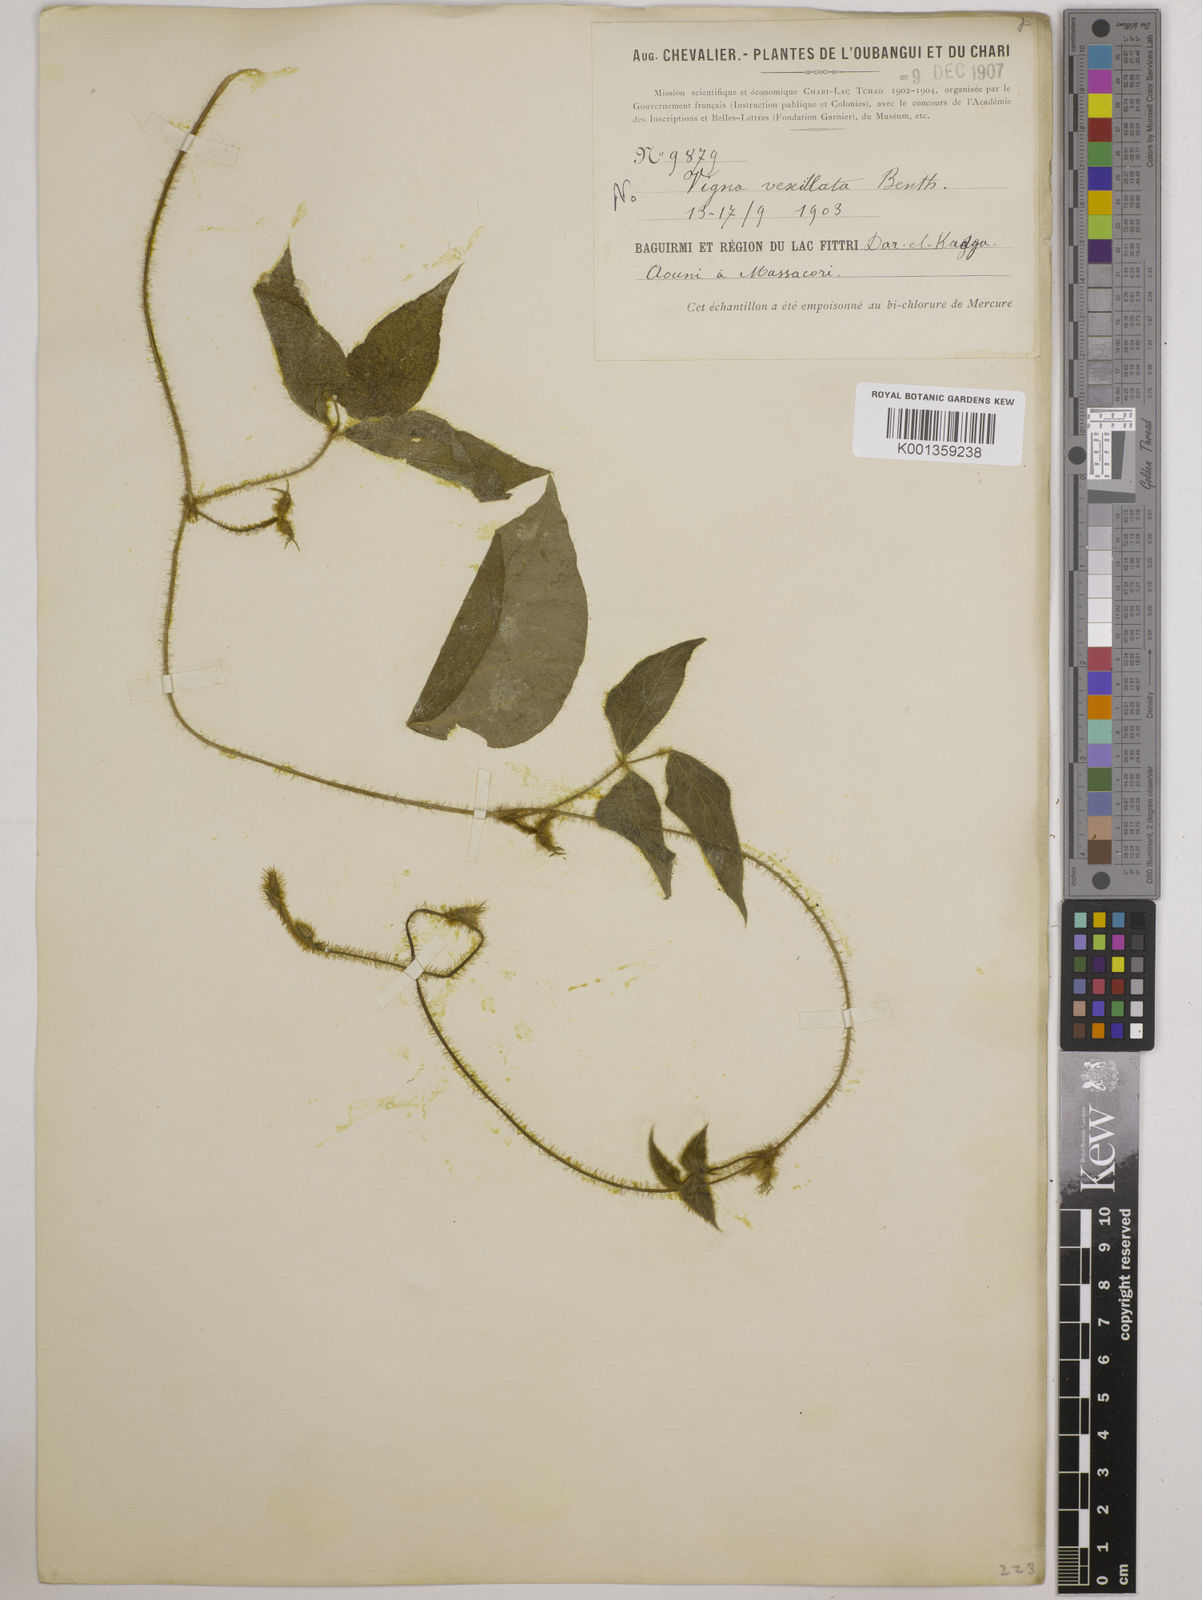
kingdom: Plantae
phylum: Tracheophyta
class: Magnoliopsida
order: Fabales
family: Fabaceae
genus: Vigna
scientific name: Vigna vexillata
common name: Zombi pea
